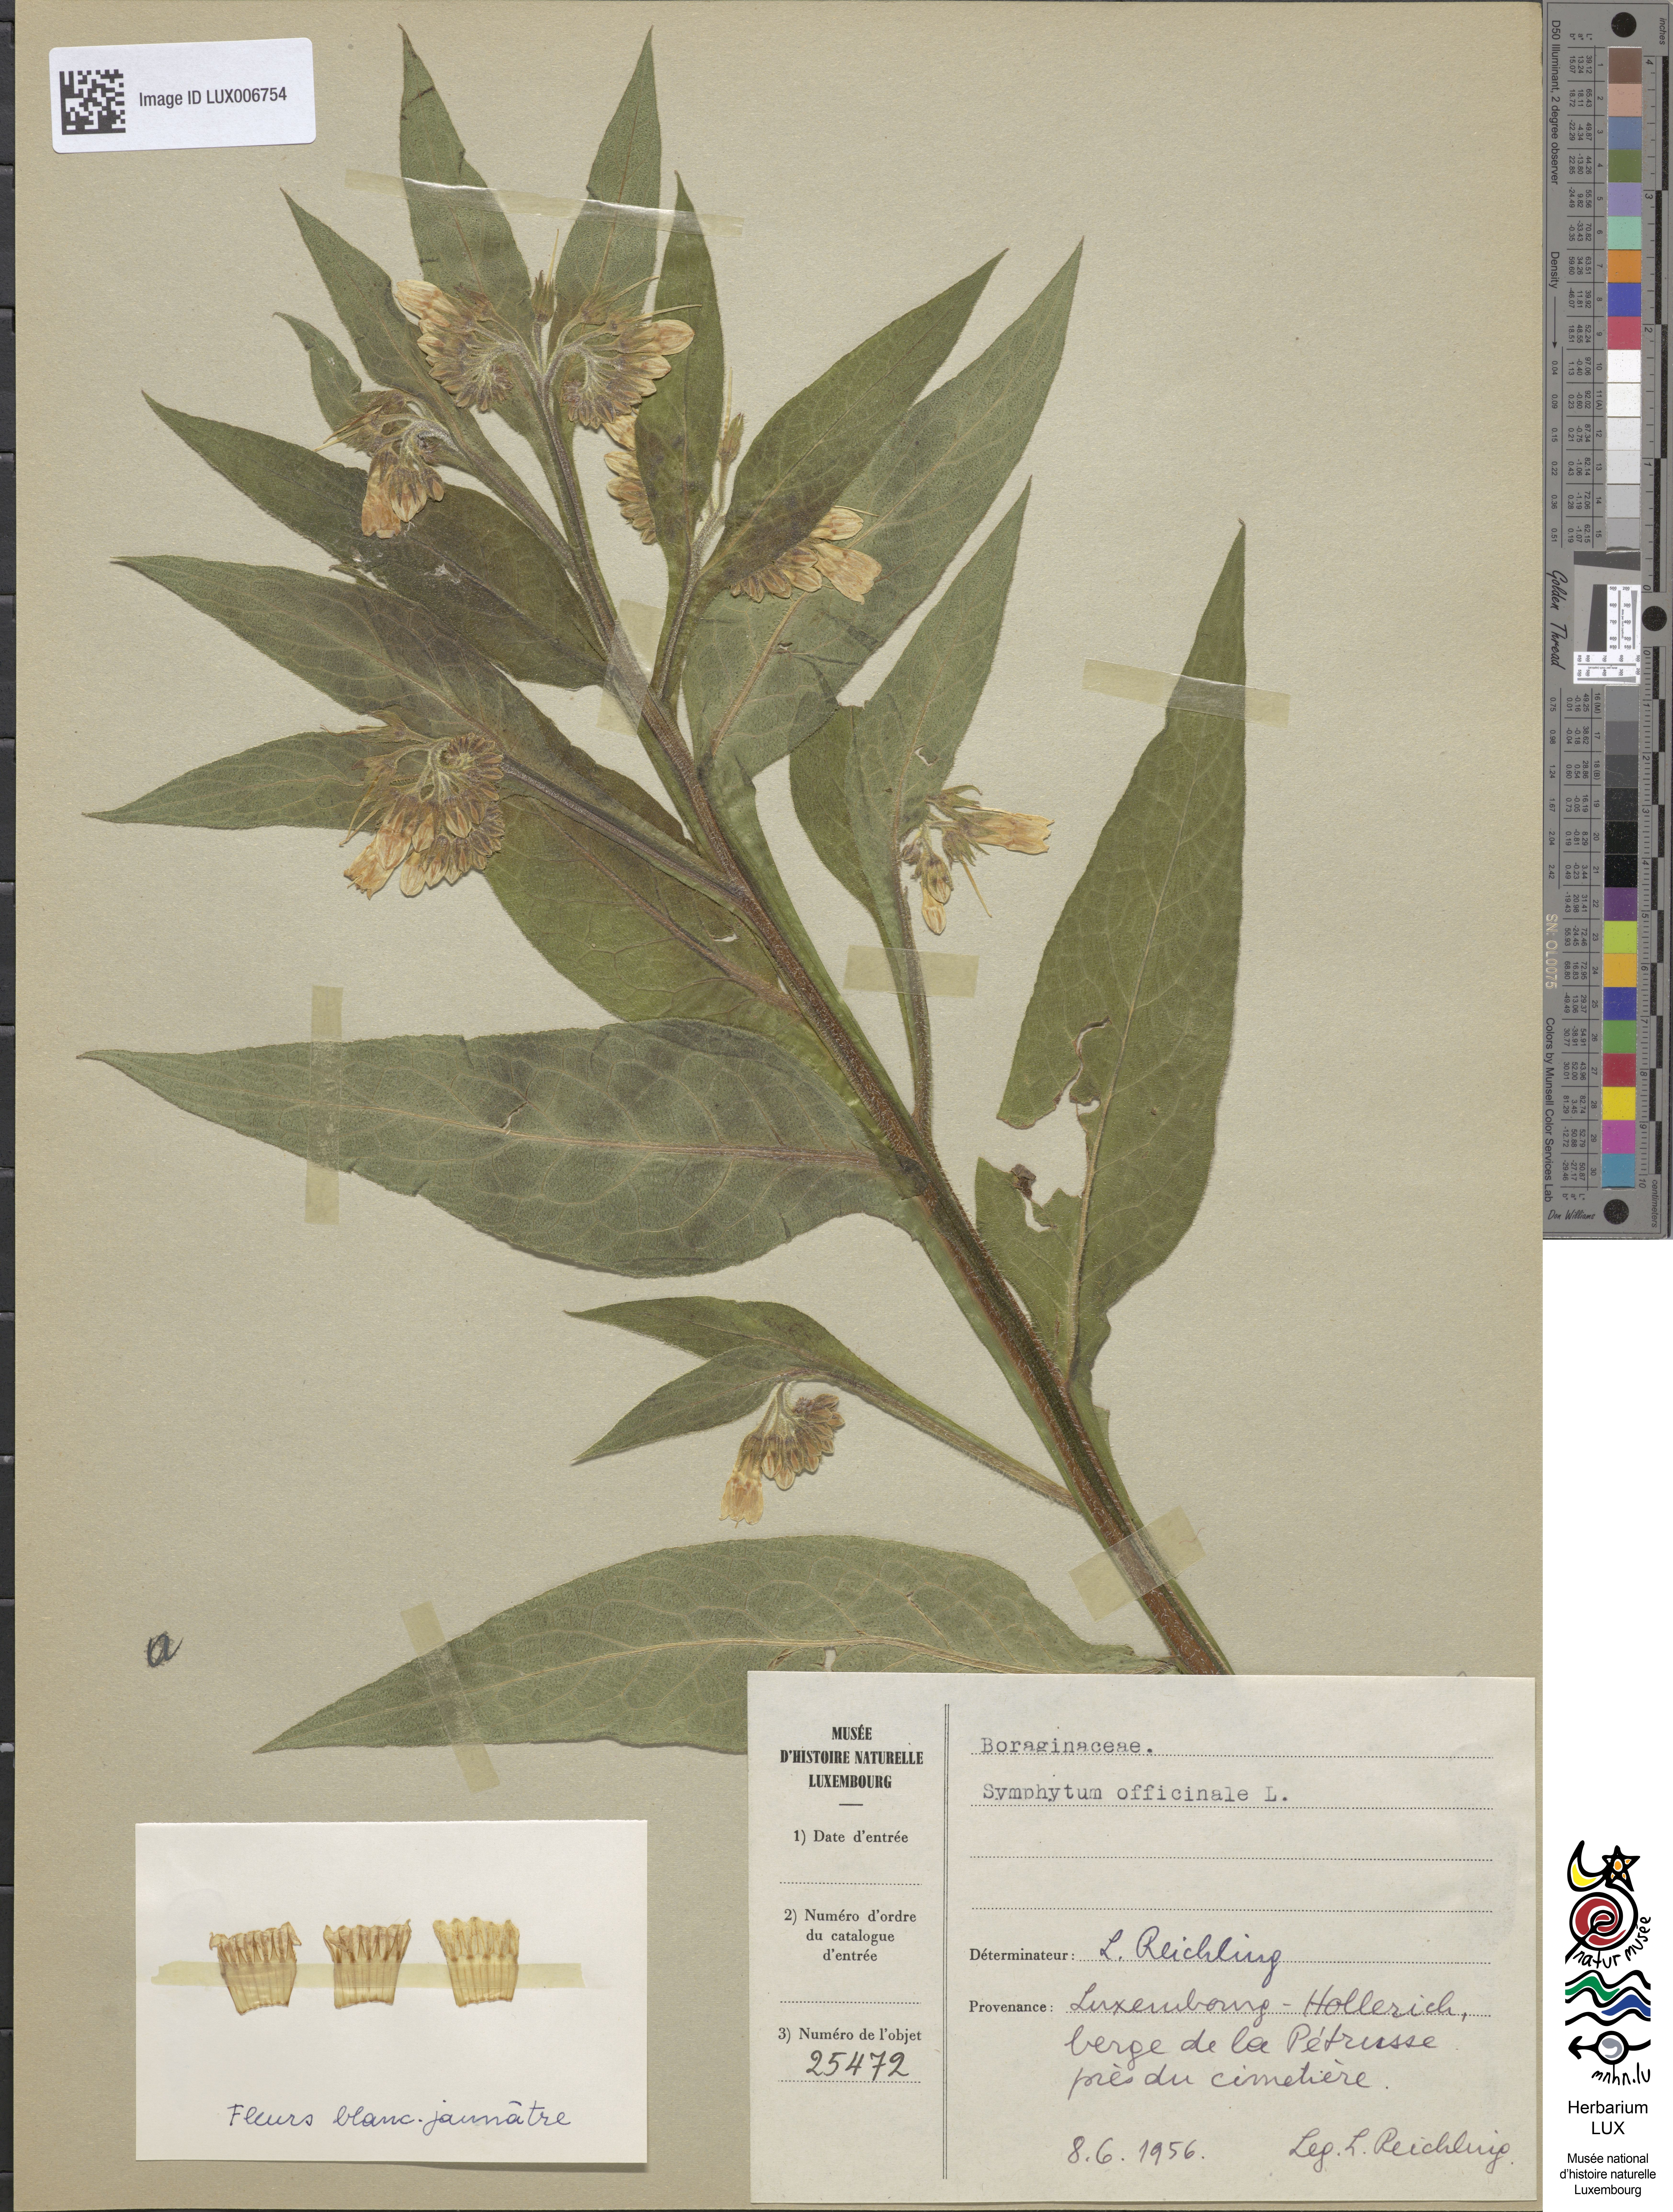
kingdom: Plantae
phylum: Tracheophyta
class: Magnoliopsida
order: Boraginales
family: Boraginaceae
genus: Symphytum
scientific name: Symphytum officinale
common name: Common comfrey
